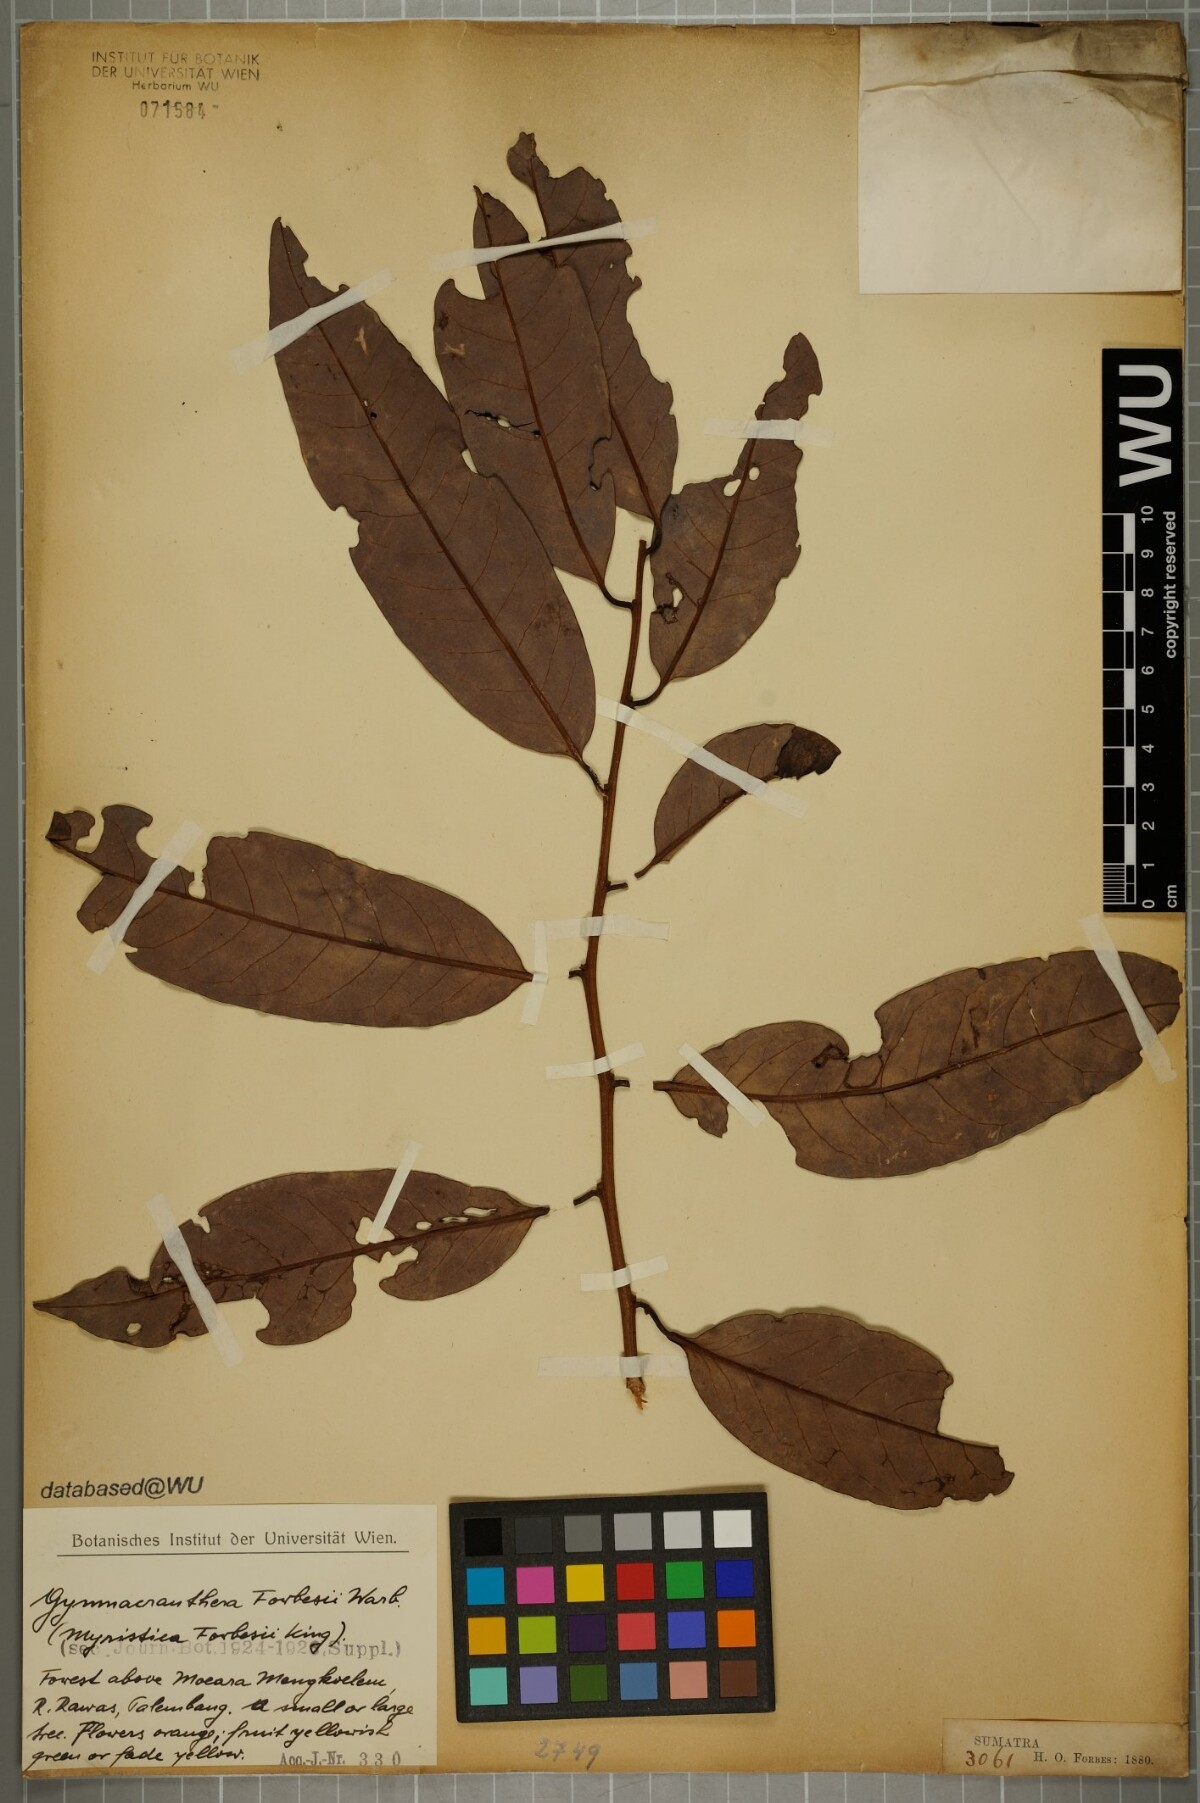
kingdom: Plantae
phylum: Tracheophyta
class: Magnoliopsida
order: Magnoliales
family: Myristicaceae
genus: Gymnacranthera
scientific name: Gymnacranthera forbesii
